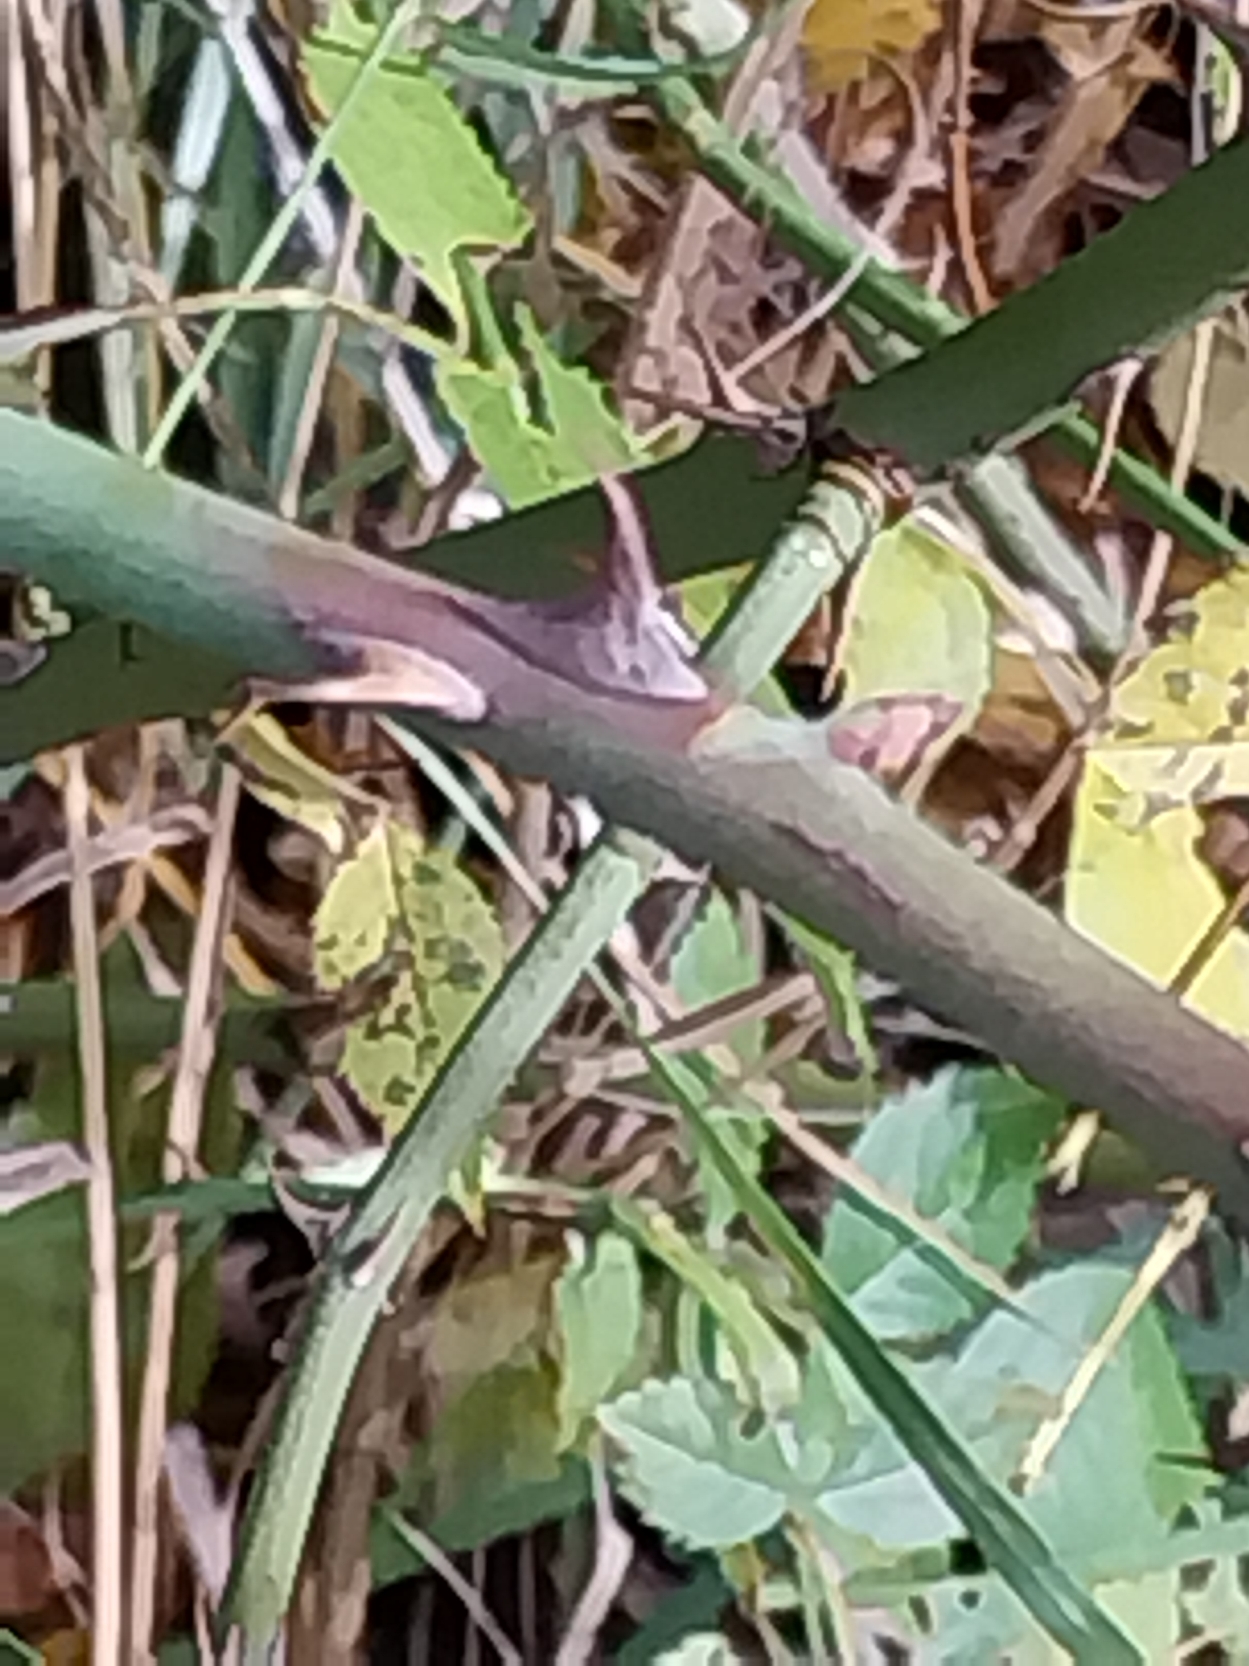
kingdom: Plantae
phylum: Tracheophyta
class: Magnoliopsida
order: Rosales
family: Rosaceae
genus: Rosa
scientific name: Rosa canina
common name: Glat hunde-rose
